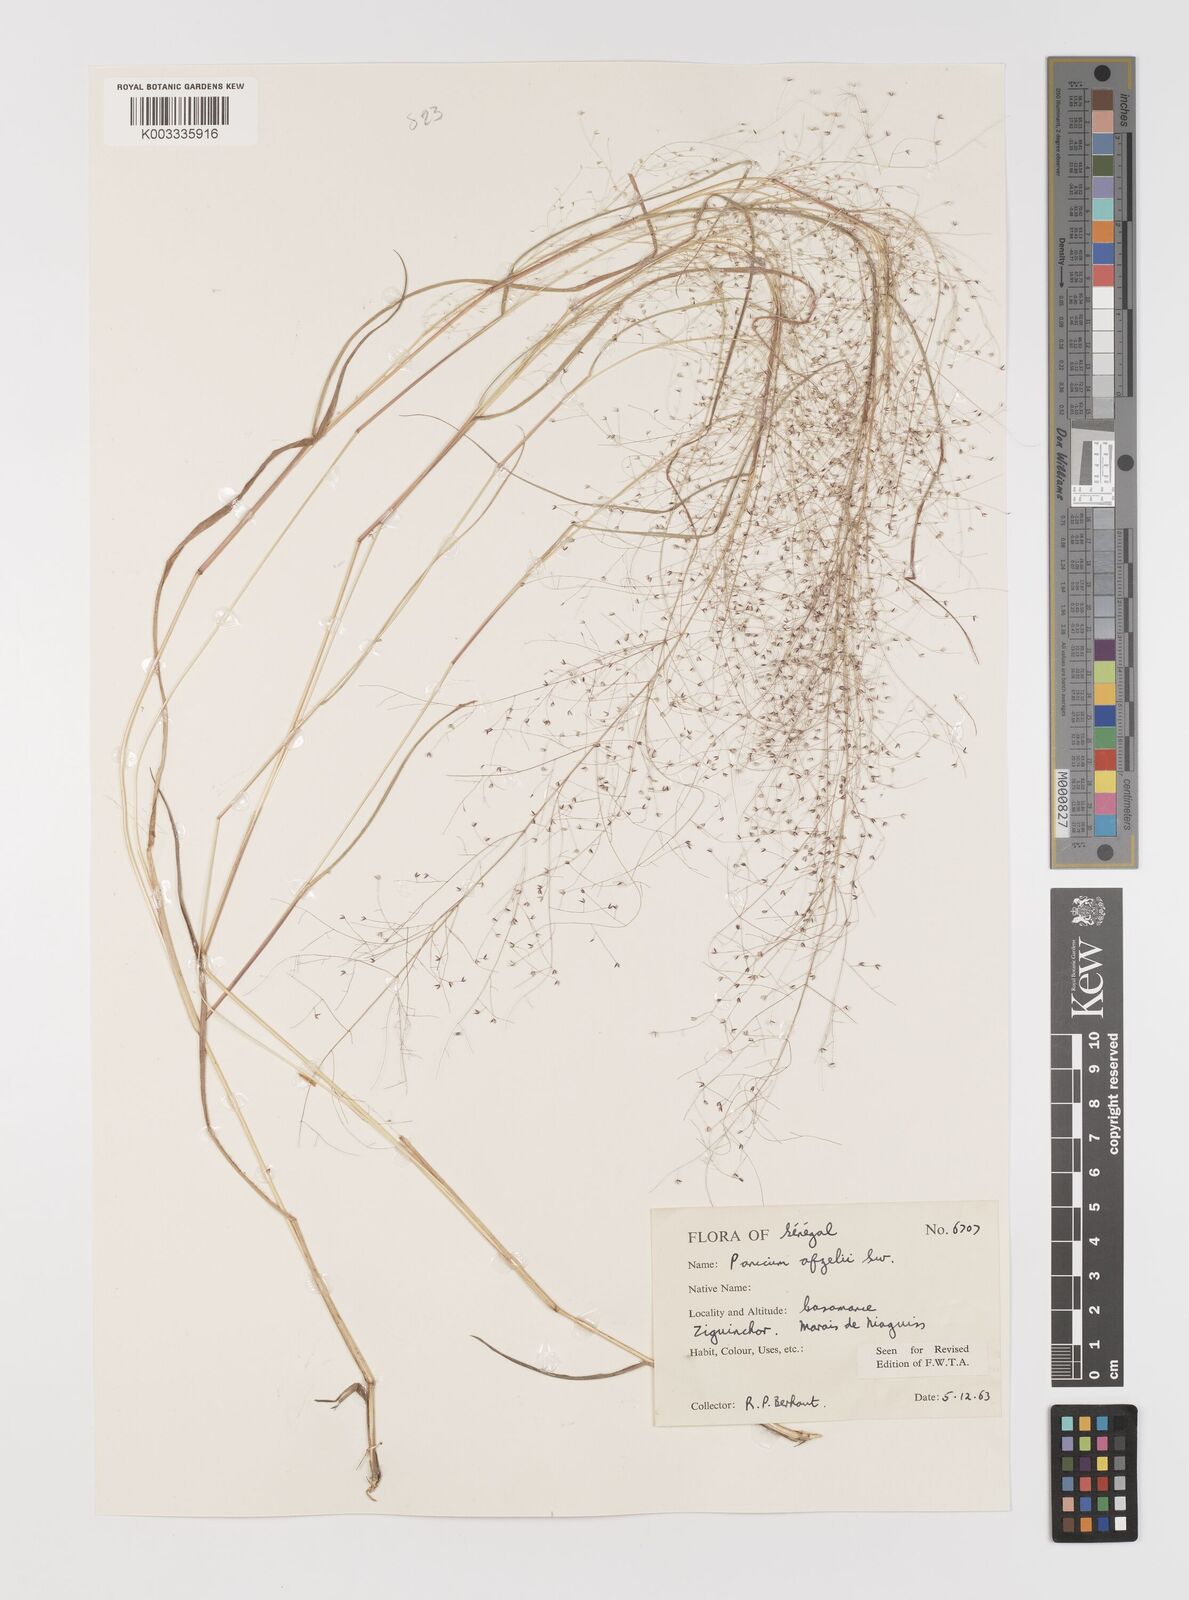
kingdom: Plantae
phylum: Tracheophyta
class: Liliopsida
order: Poales
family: Poaceae
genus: Panicum
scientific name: Panicum afzelii
